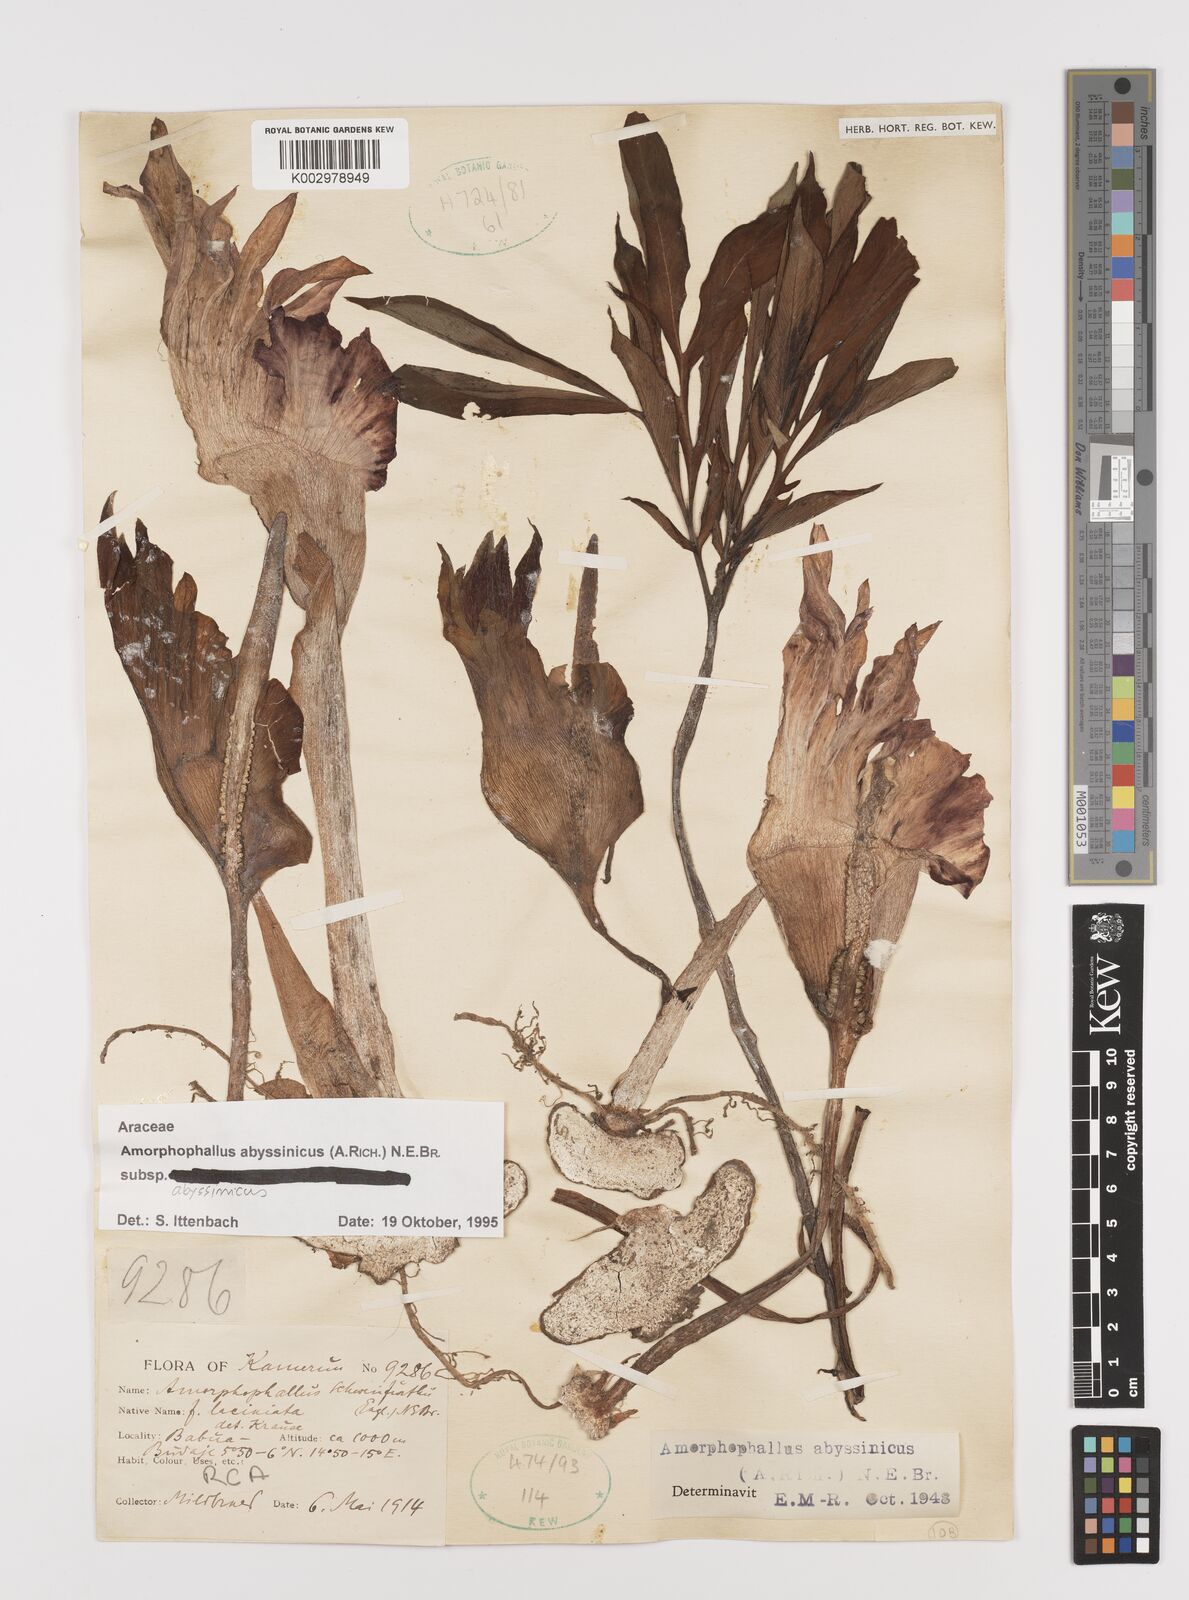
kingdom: Plantae
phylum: Tracheophyta
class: Liliopsida
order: Alismatales
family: Araceae
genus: Amorphophallus
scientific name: Amorphophallus abyssinicus
